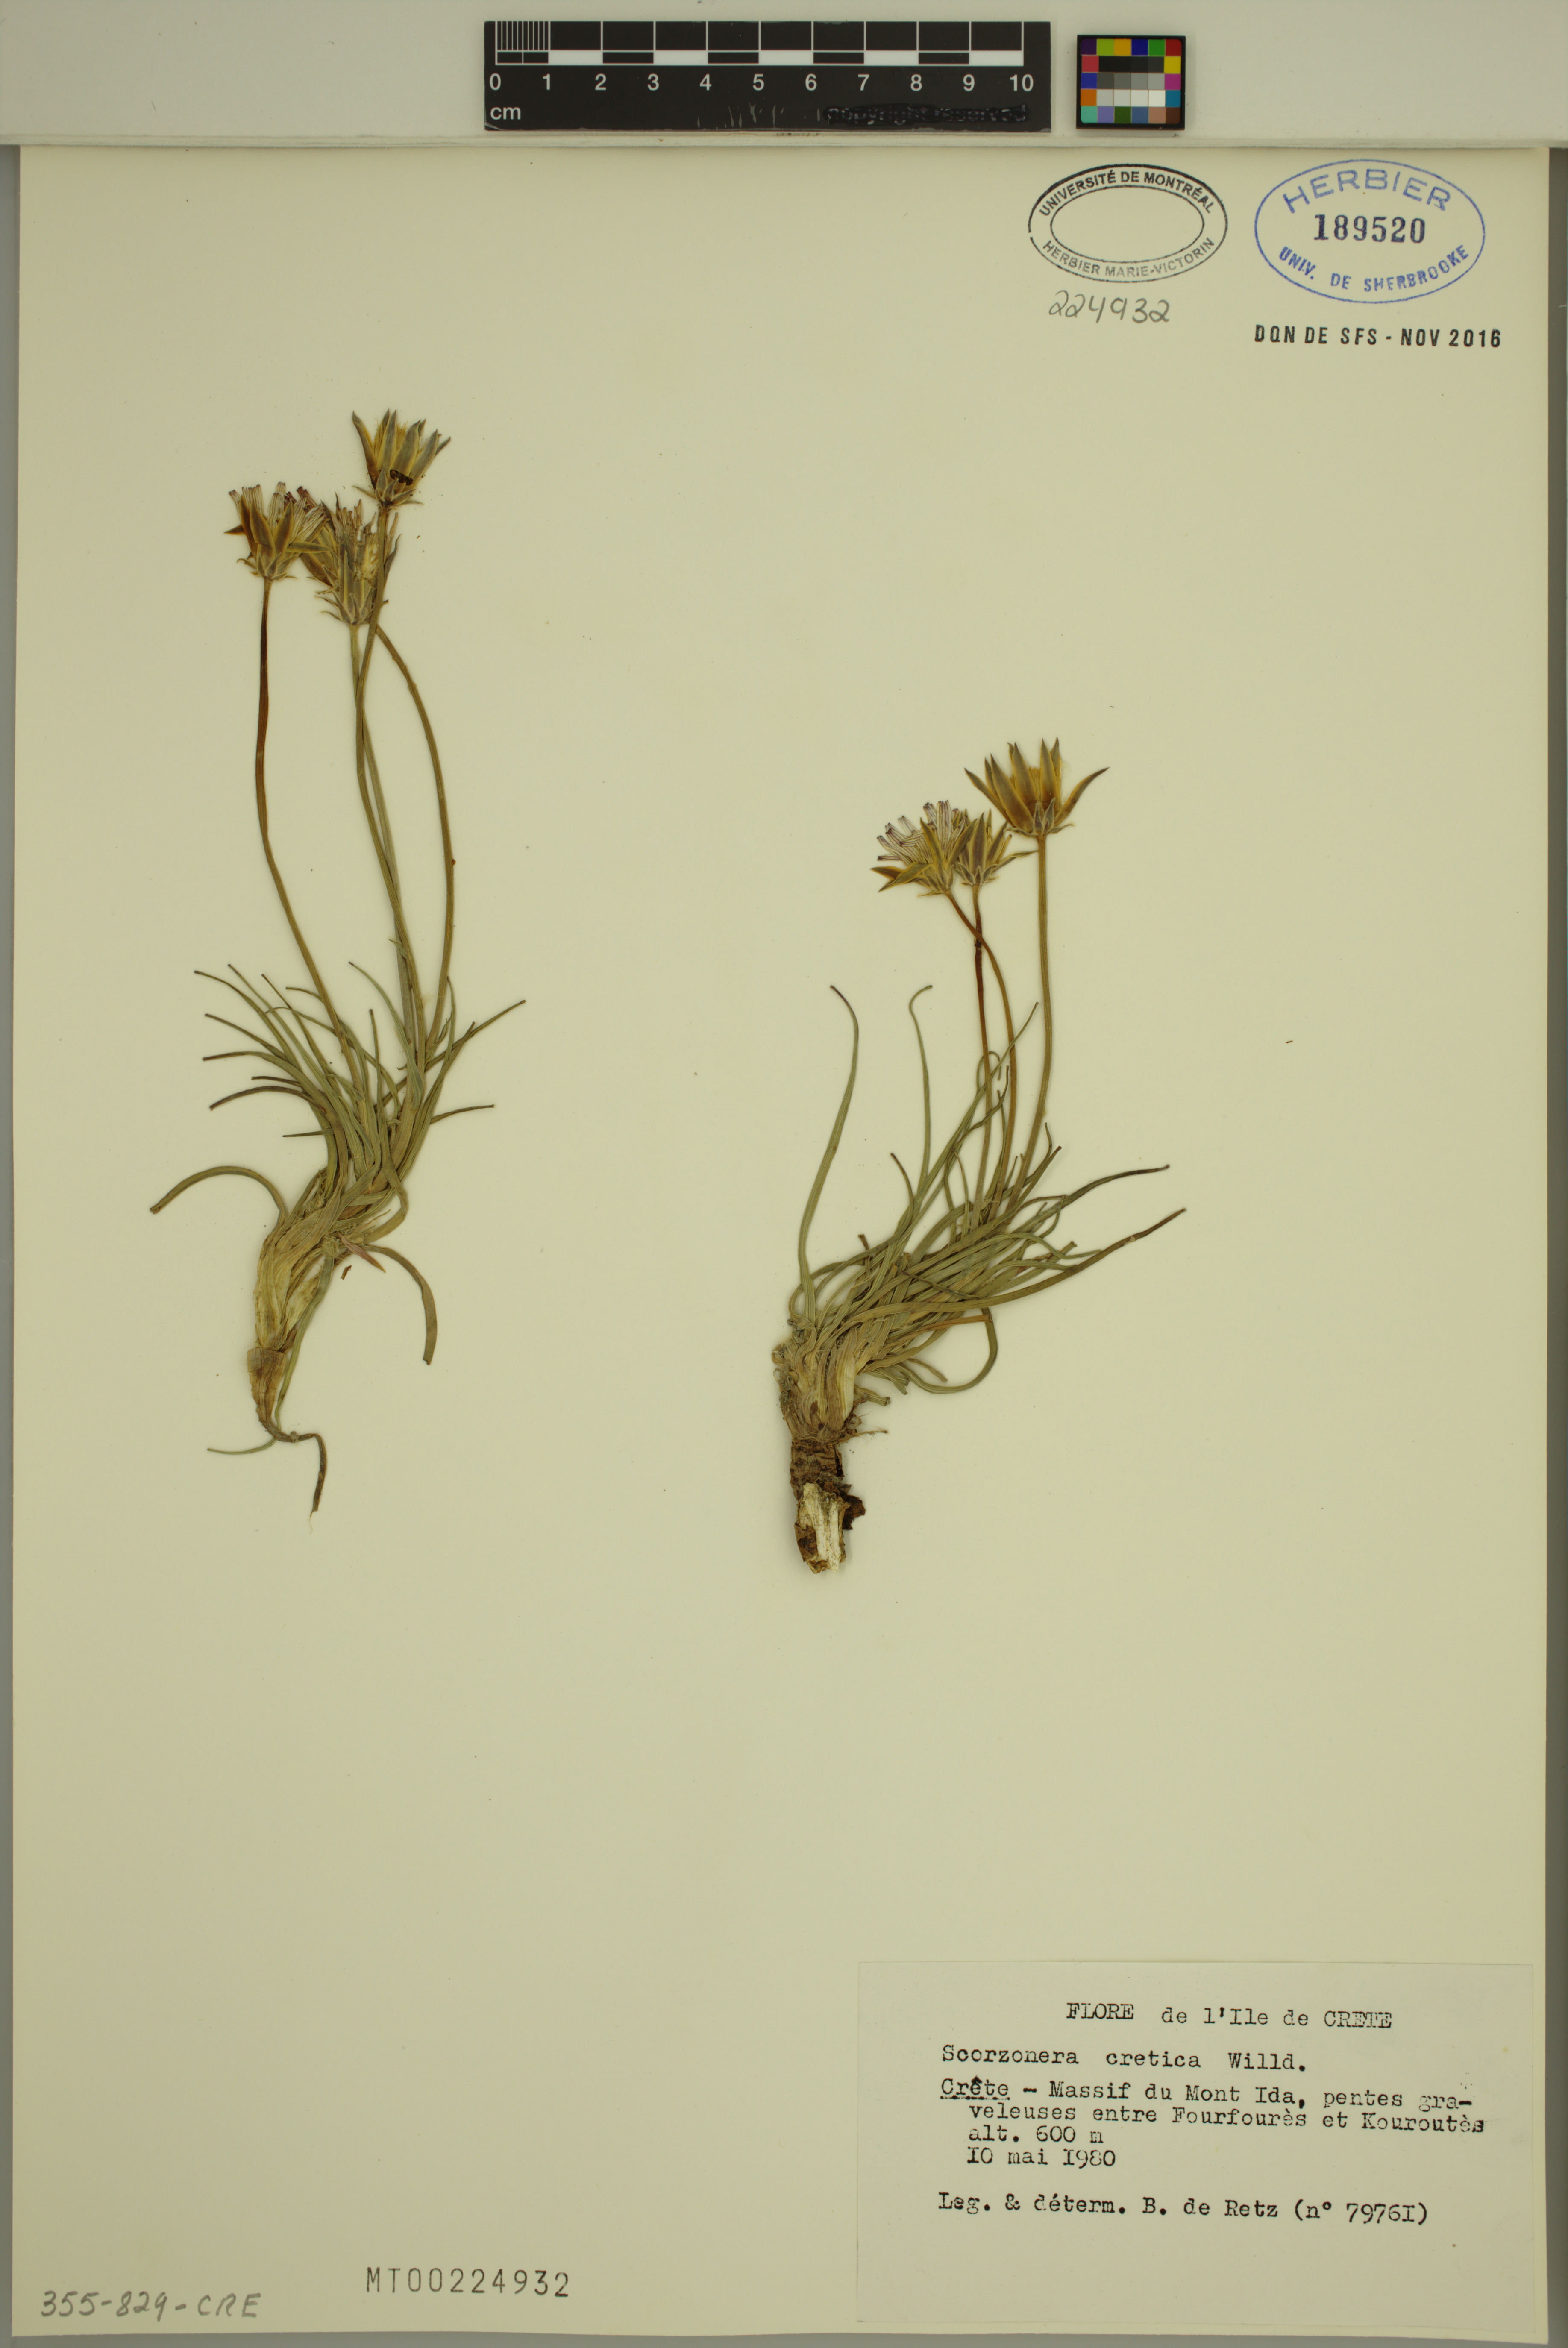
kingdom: Plantae
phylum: Tracheophyta
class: Magnoliopsida
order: Asterales
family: Asteraceae
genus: Gelasia
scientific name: Gelasia cretica
